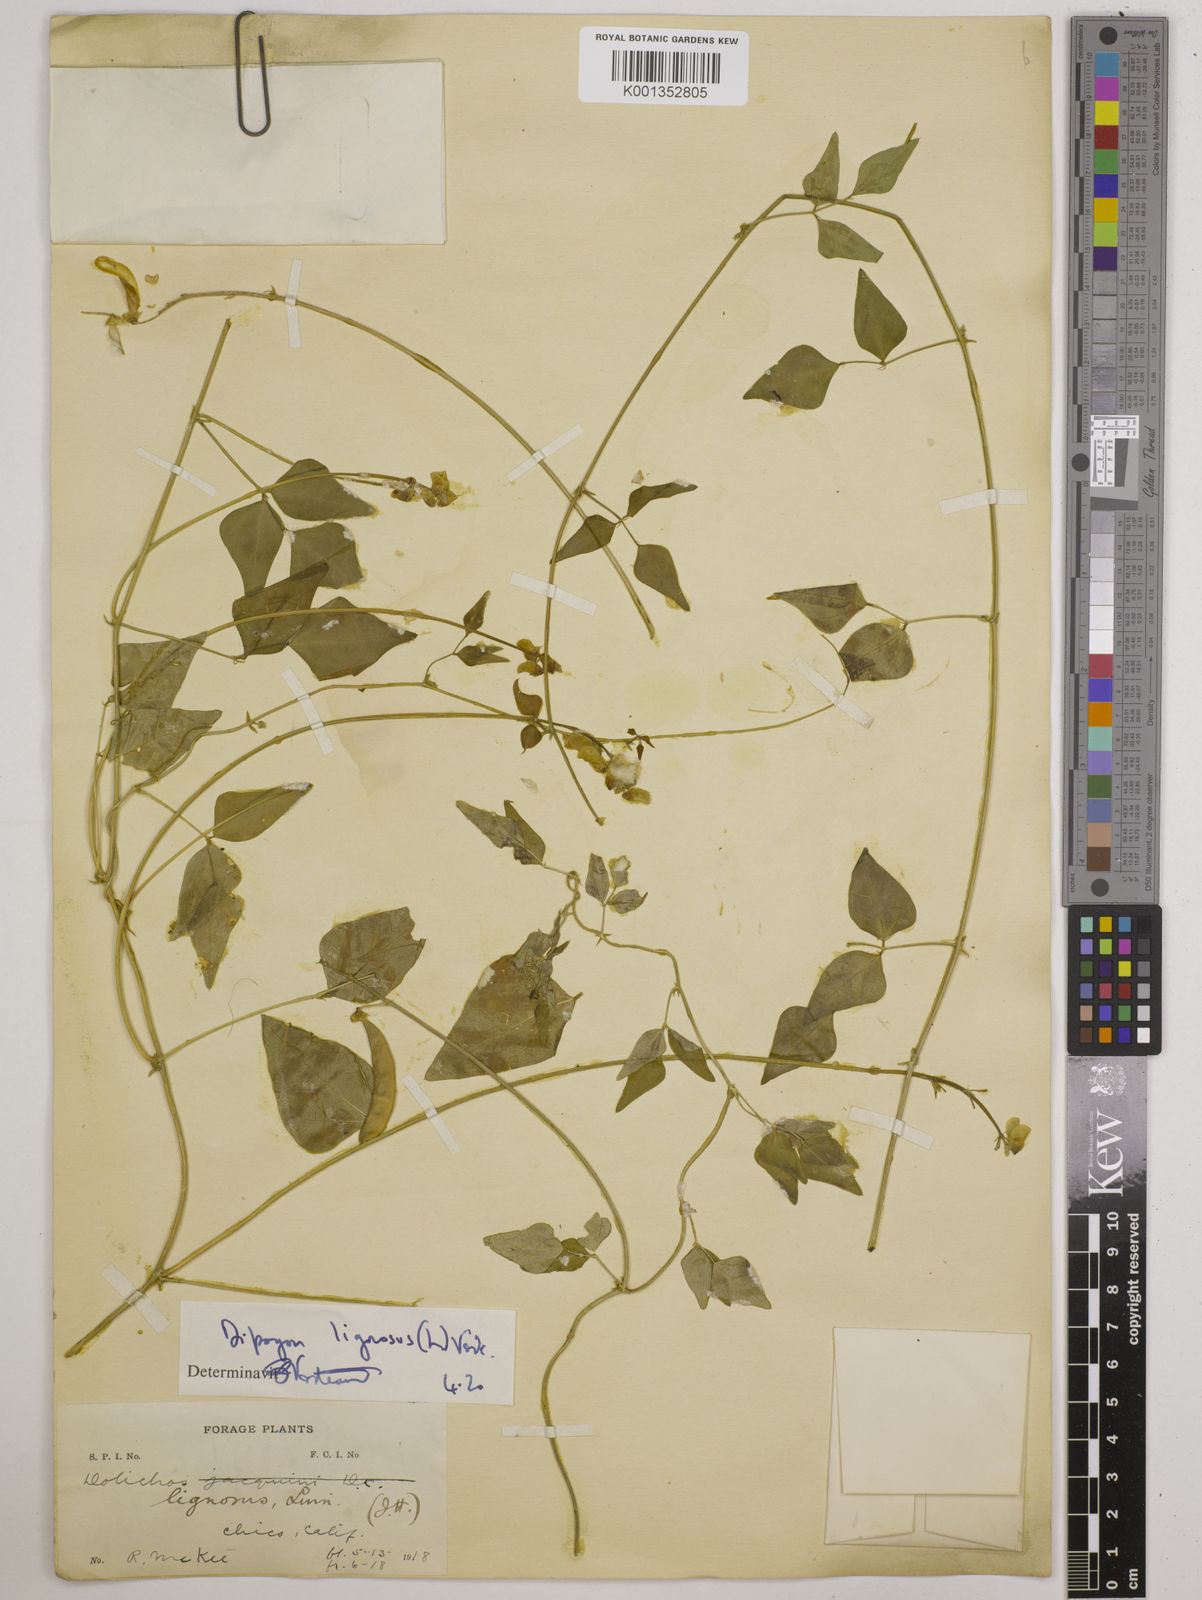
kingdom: Plantae
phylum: Tracheophyta
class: Magnoliopsida
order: Fabales
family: Fabaceae
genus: Dipogon
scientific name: Dipogon lignosus
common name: Okie bean
